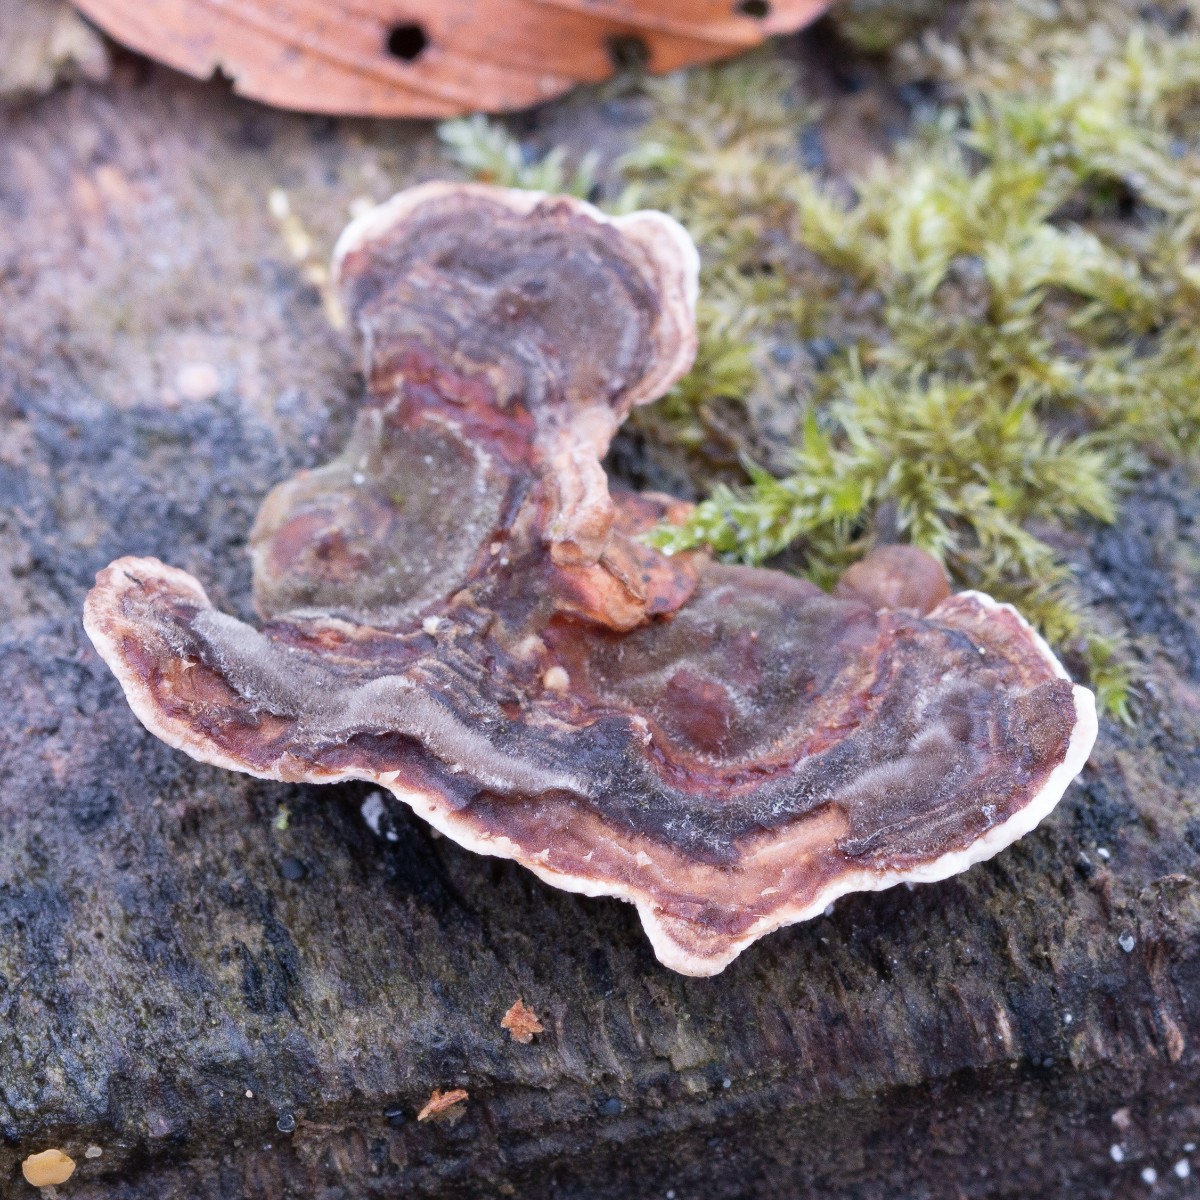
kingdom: Fungi
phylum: Basidiomycota
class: Agaricomycetes
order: Polyporales
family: Polyporaceae
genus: Trametes
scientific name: Trametes versicolor
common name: broget læderporesvamp
